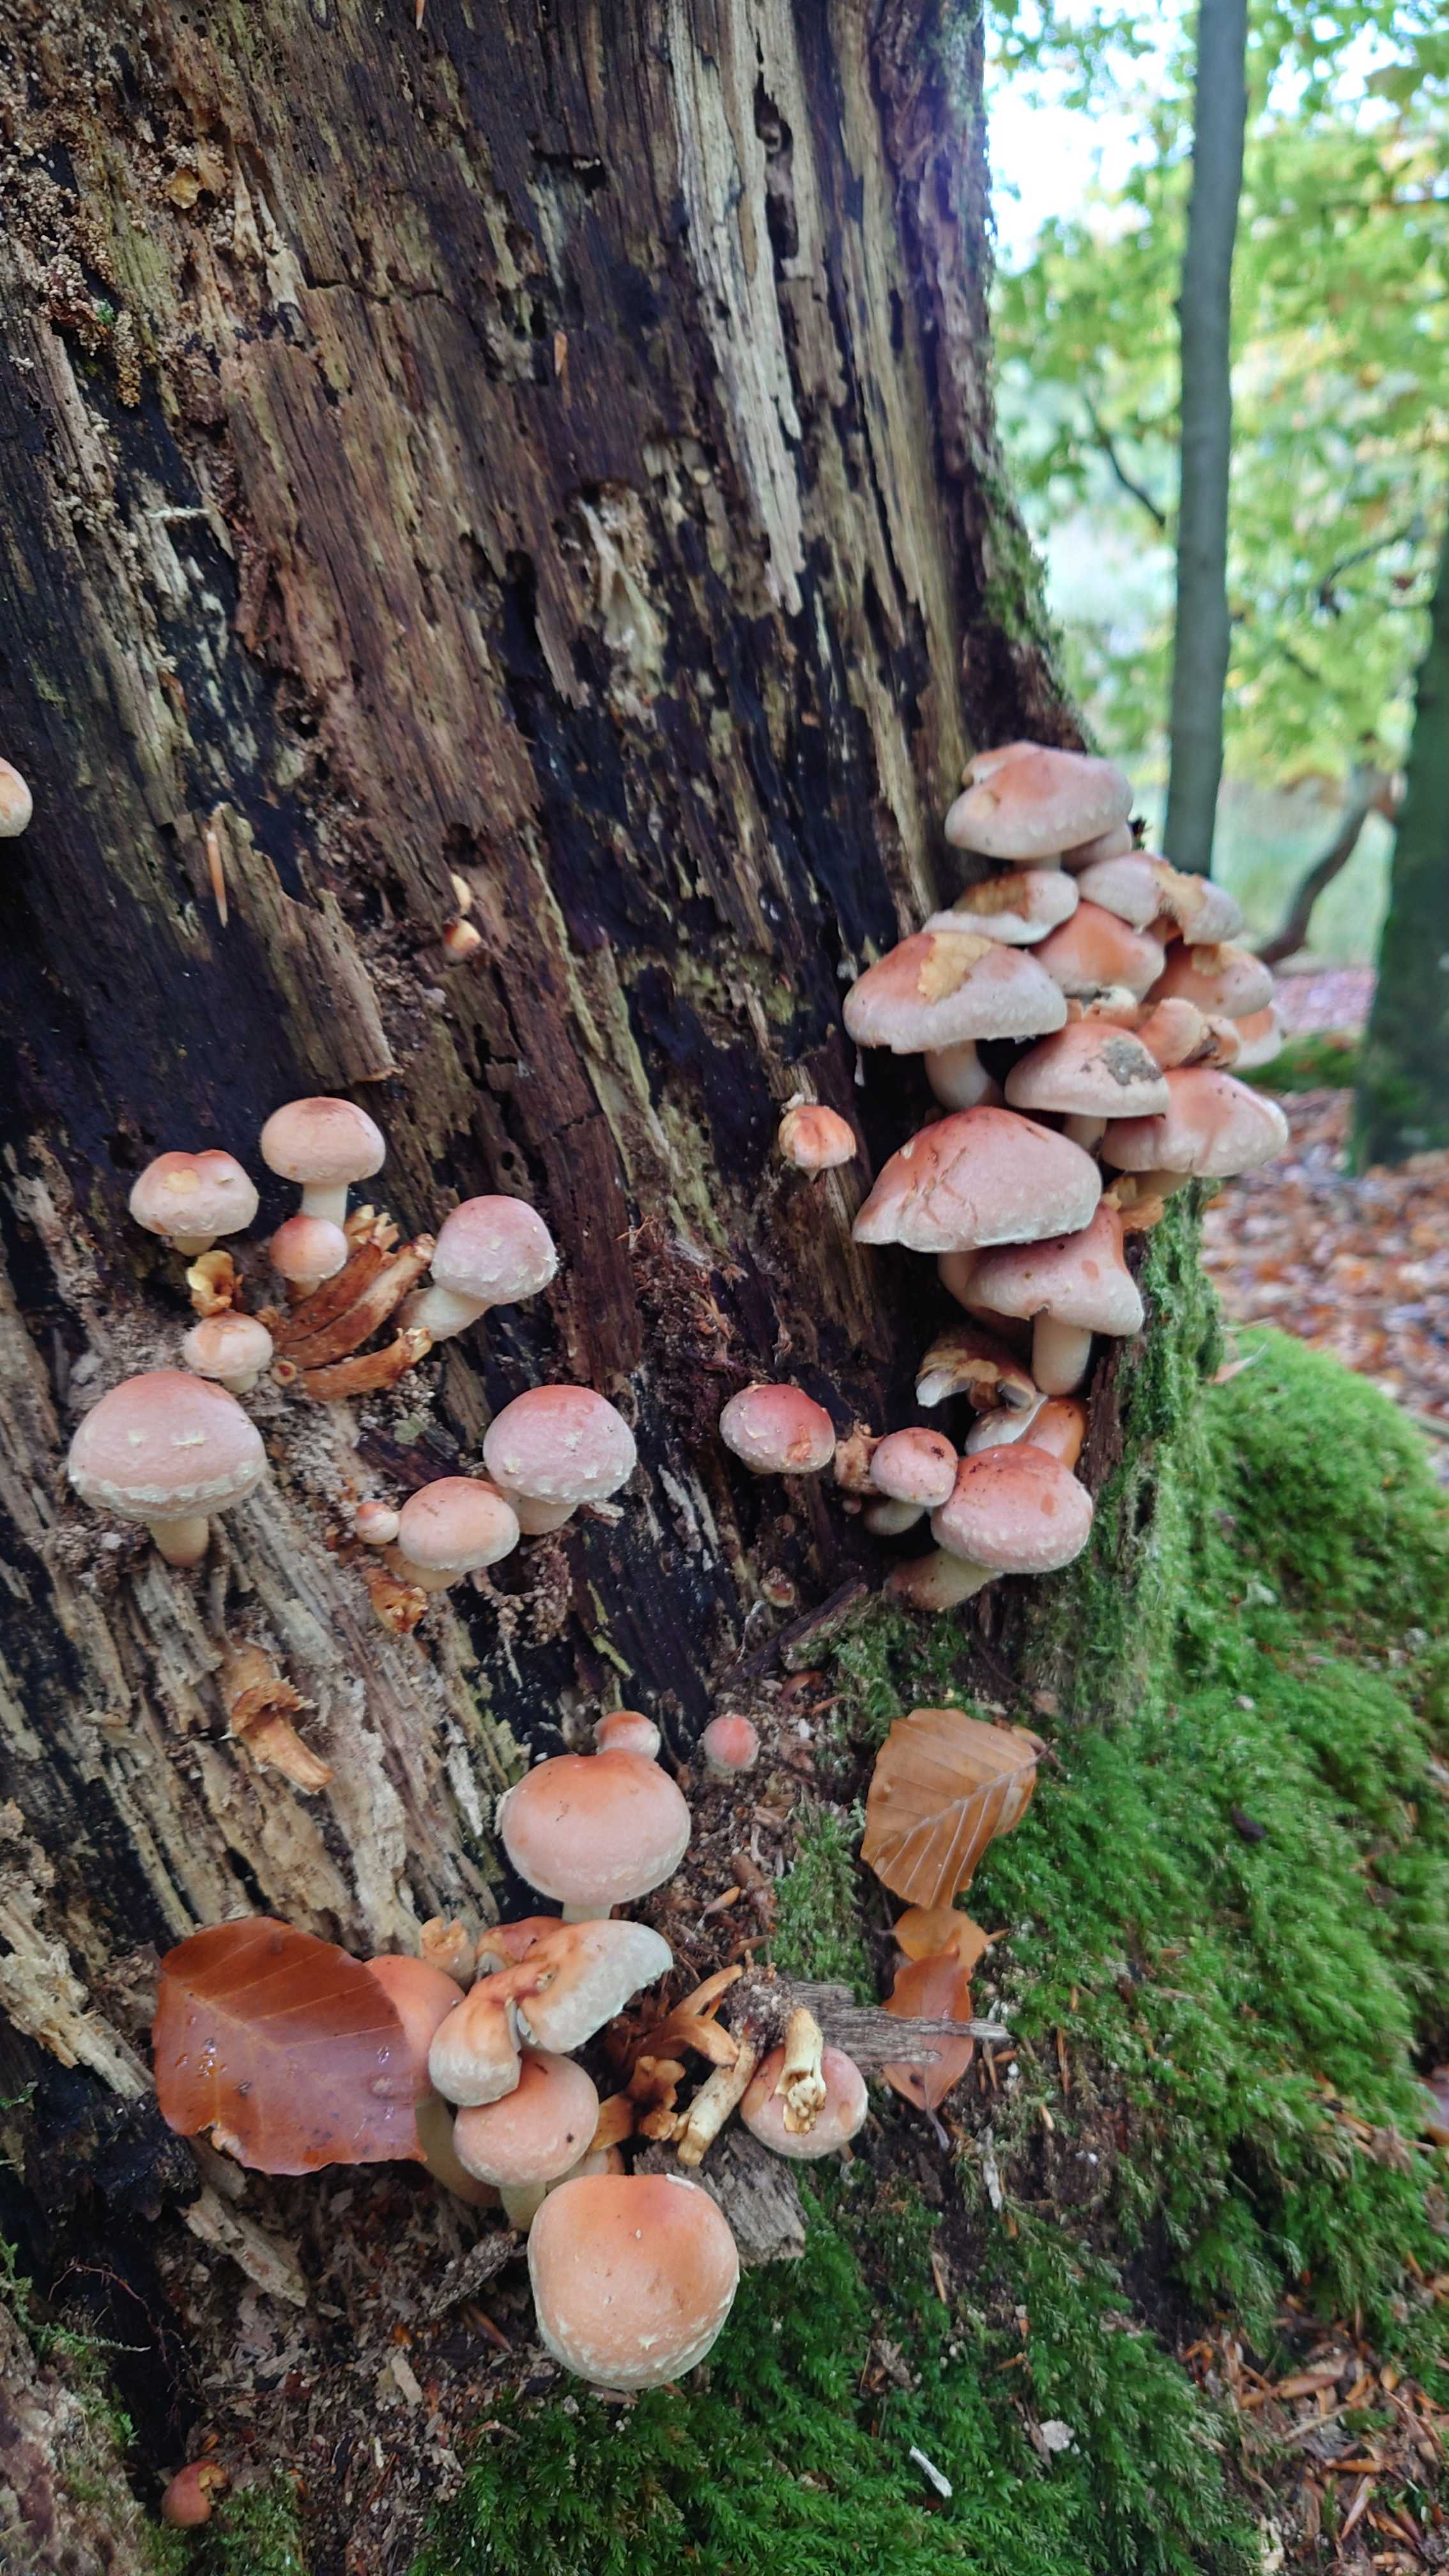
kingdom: Fungi
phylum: Basidiomycota
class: Agaricomycetes
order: Agaricales
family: Strophariaceae
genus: Hypholoma
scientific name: Hypholoma lateritium
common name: teglrød svovlhat
